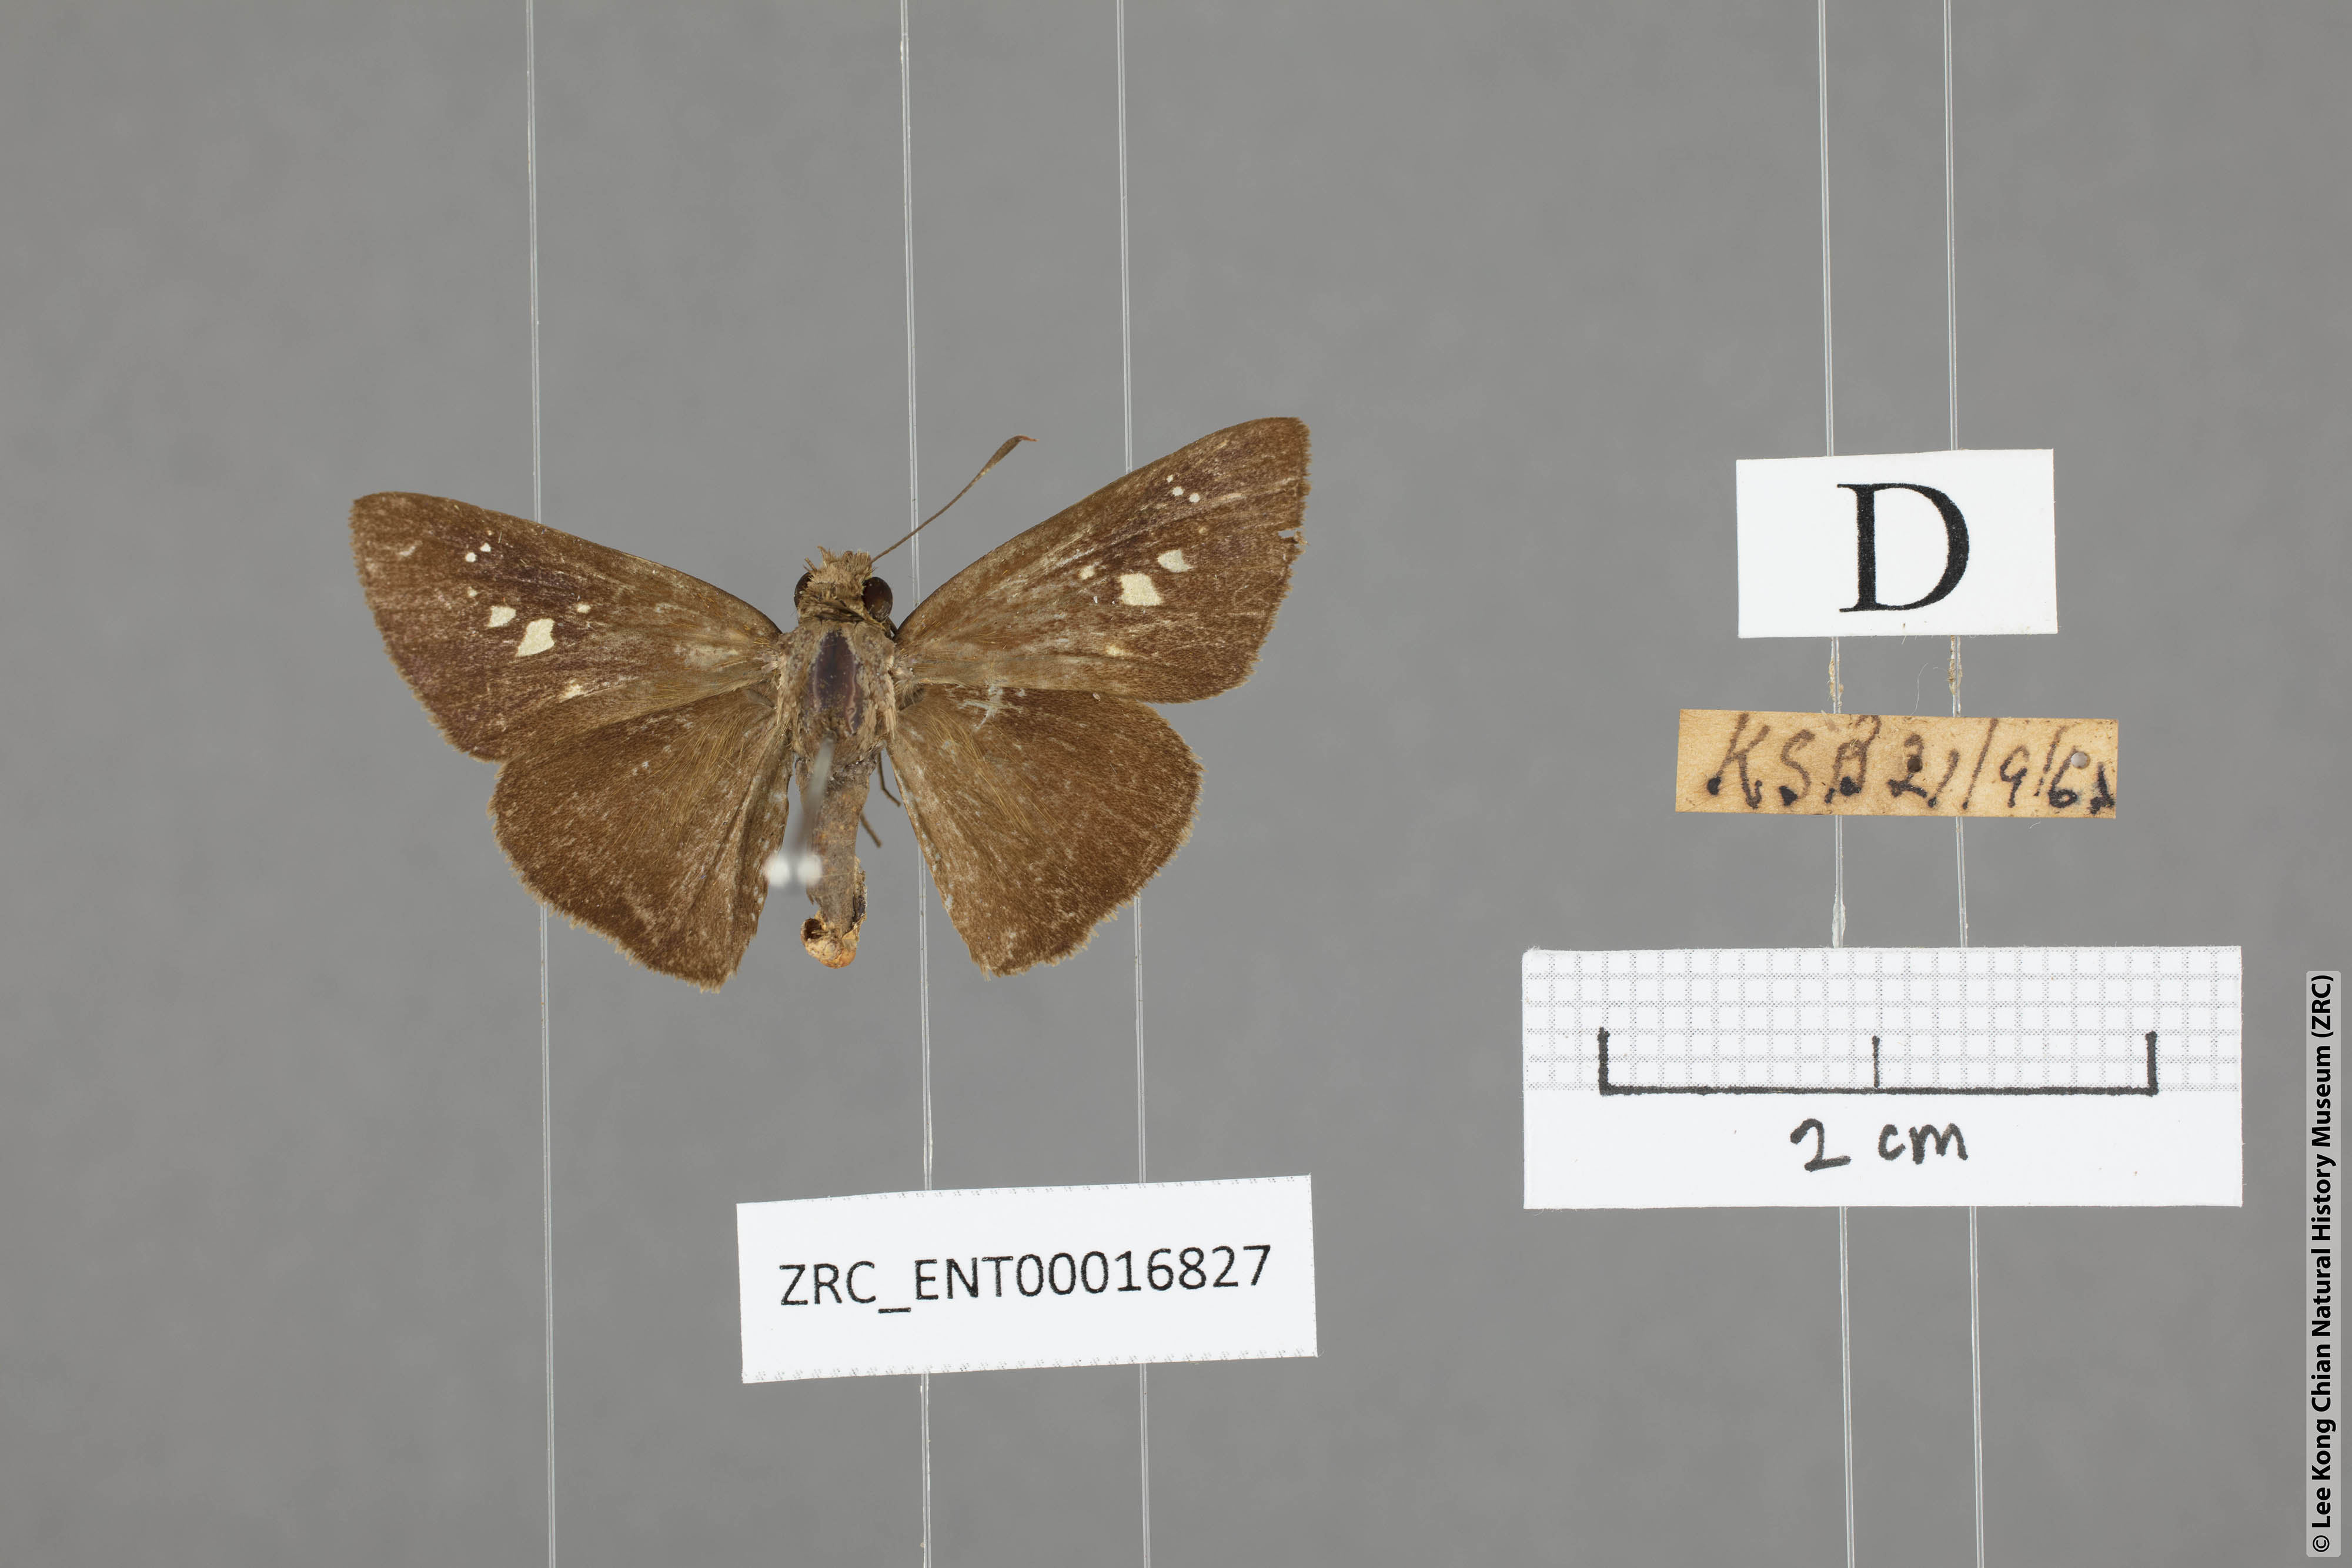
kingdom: Animalia
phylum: Arthropoda
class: Insecta
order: Lepidoptera
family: Hesperiidae
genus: Caltoris
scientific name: Caltoris cormasa
